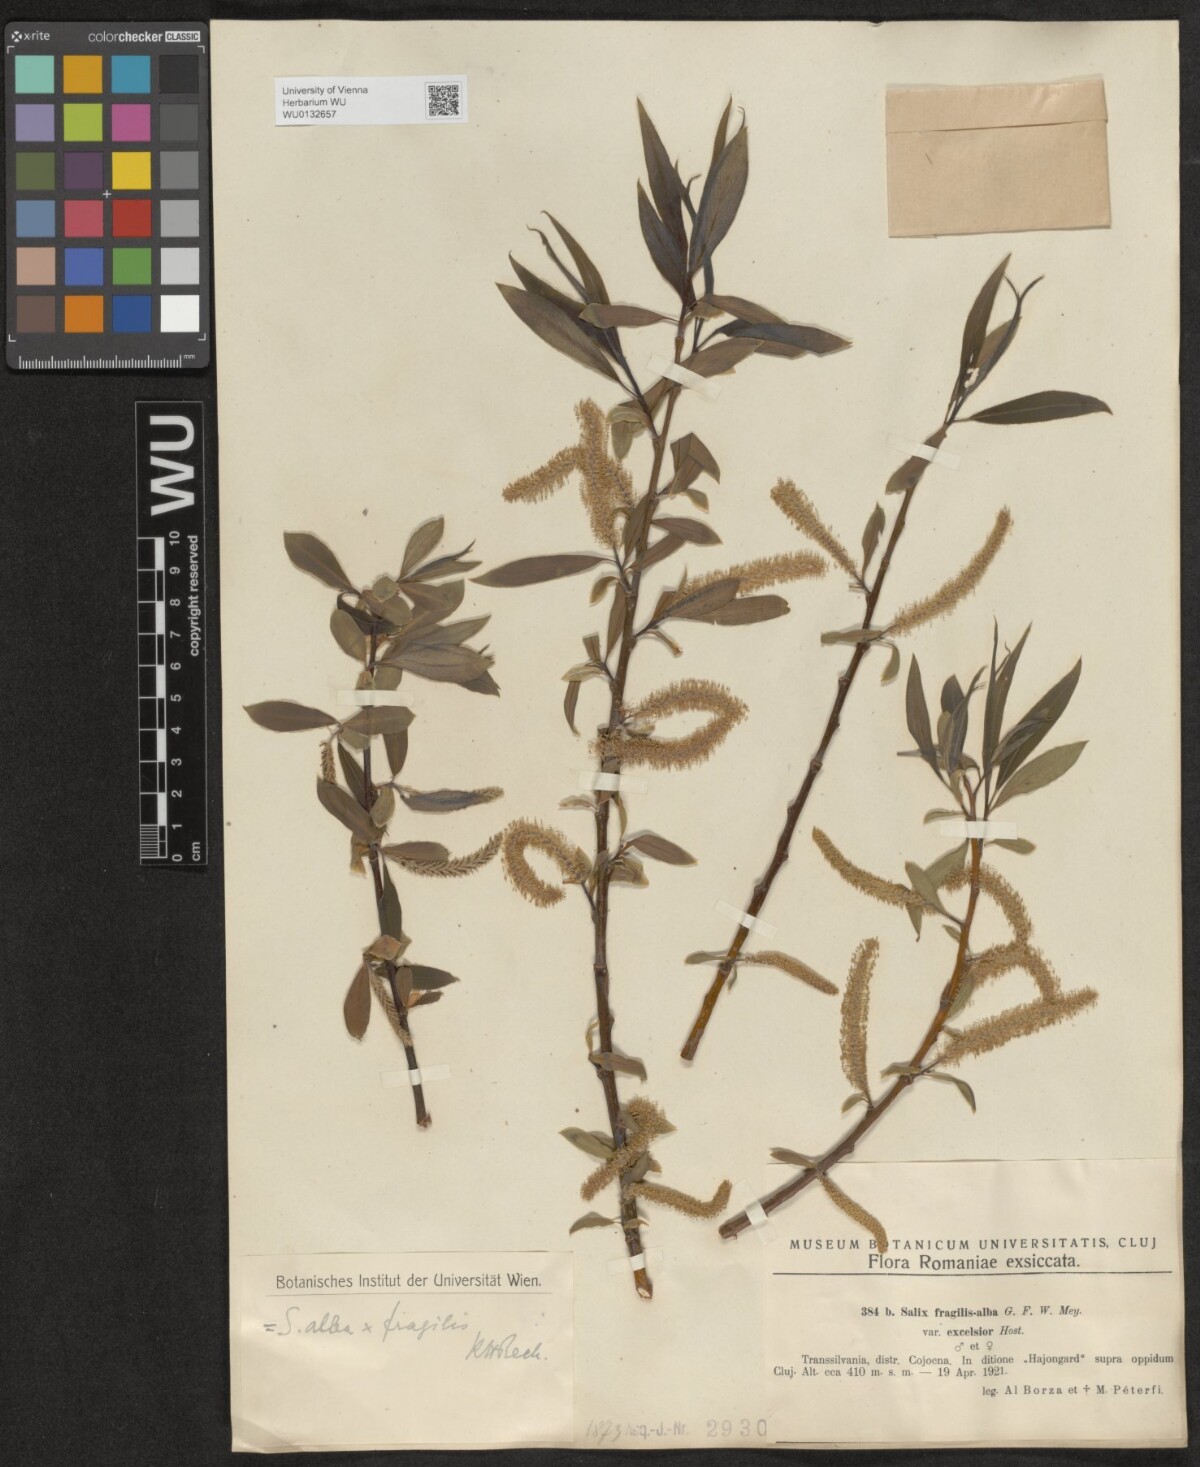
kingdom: Plantae
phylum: Tracheophyta
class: Magnoliopsida
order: Malpighiales
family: Salicaceae
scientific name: Salicaceae
